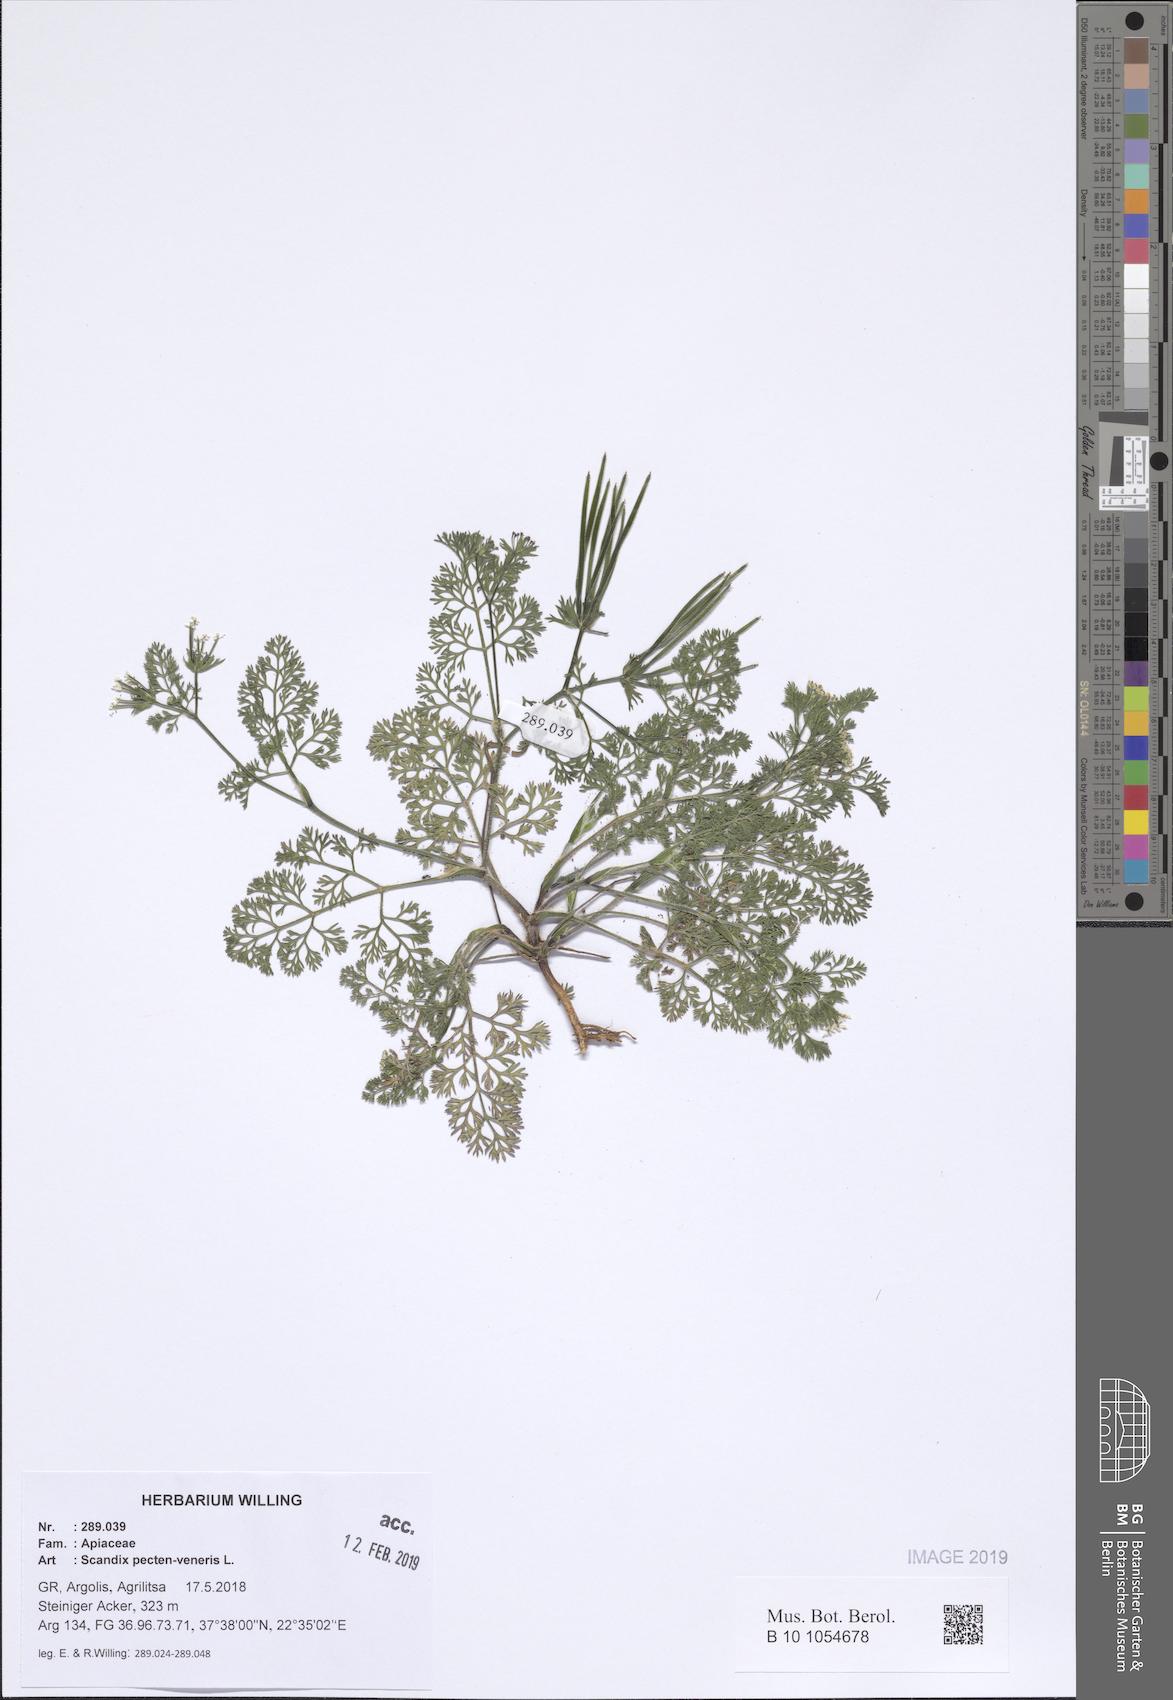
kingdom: Plantae
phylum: Tracheophyta
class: Magnoliopsida
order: Apiales
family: Apiaceae
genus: Scandix
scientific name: Scandix pecten-veneris
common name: Shepherd's-needle
